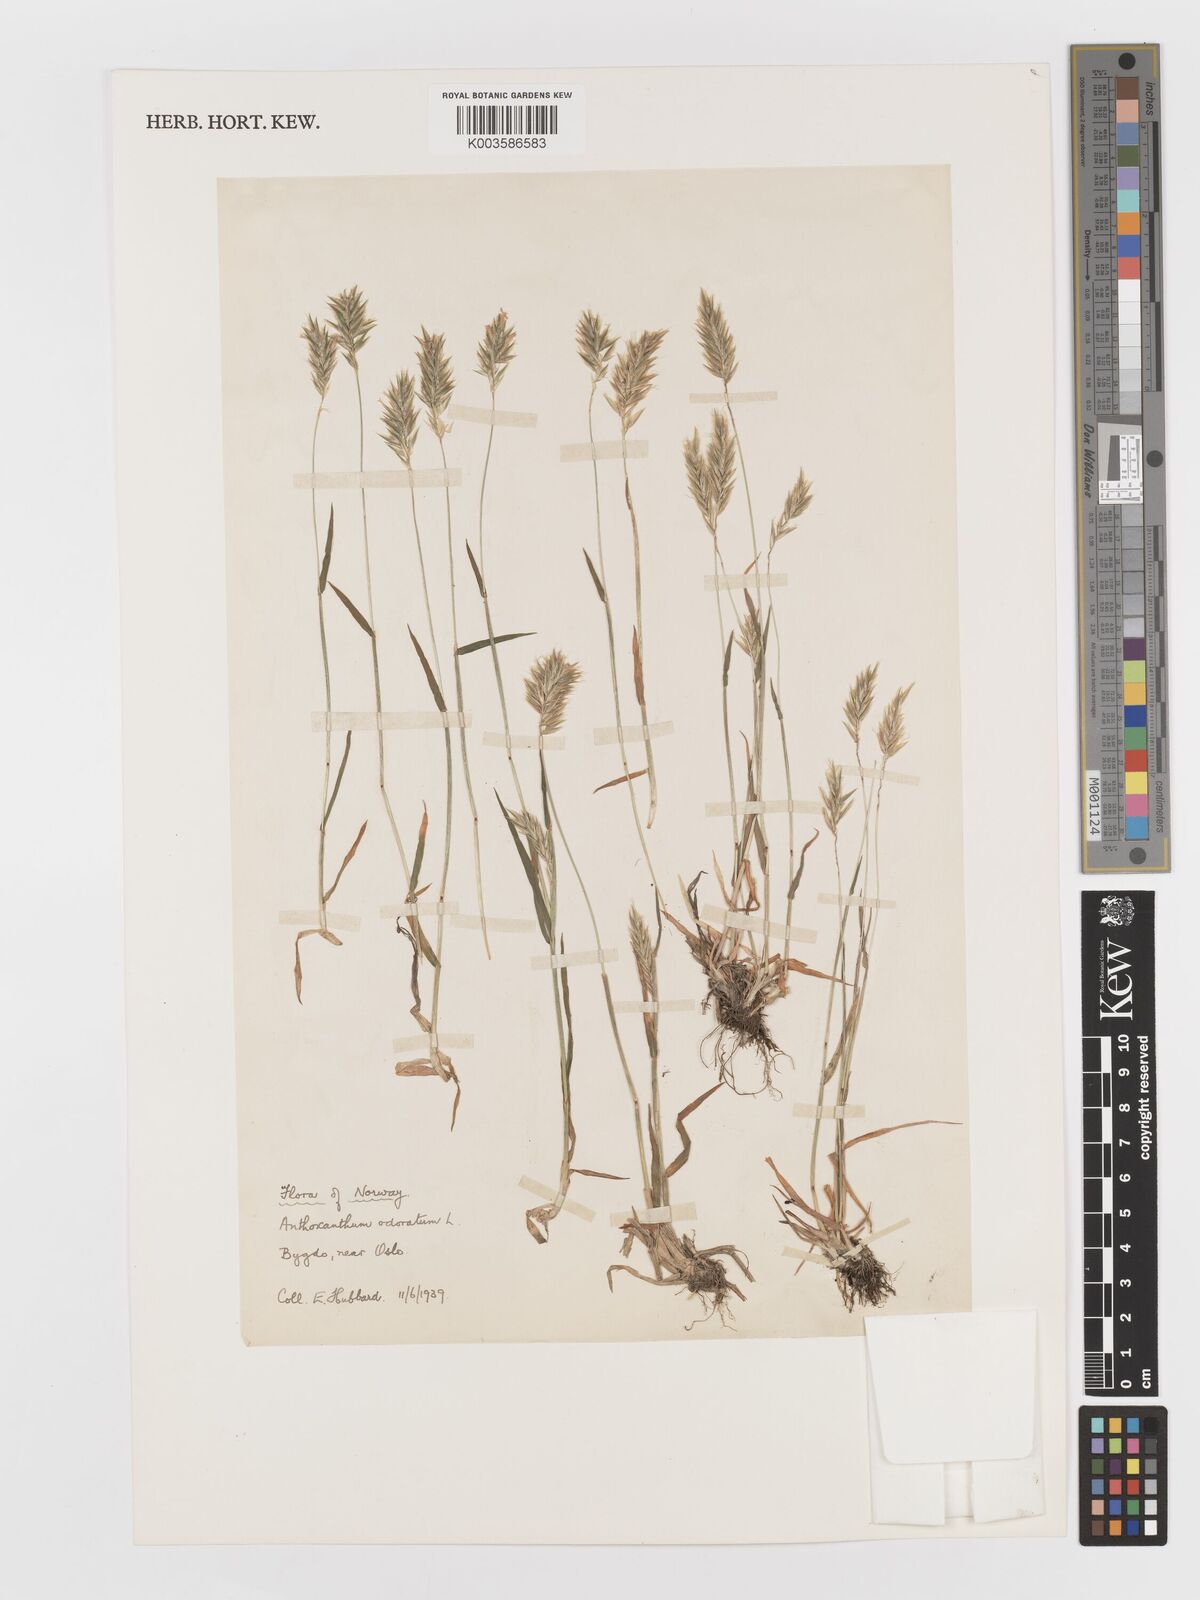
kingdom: Plantae
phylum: Tracheophyta
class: Liliopsida
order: Poales
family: Poaceae
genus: Anthoxanthum
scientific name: Anthoxanthum odoratum
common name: Sweet vernalgrass
